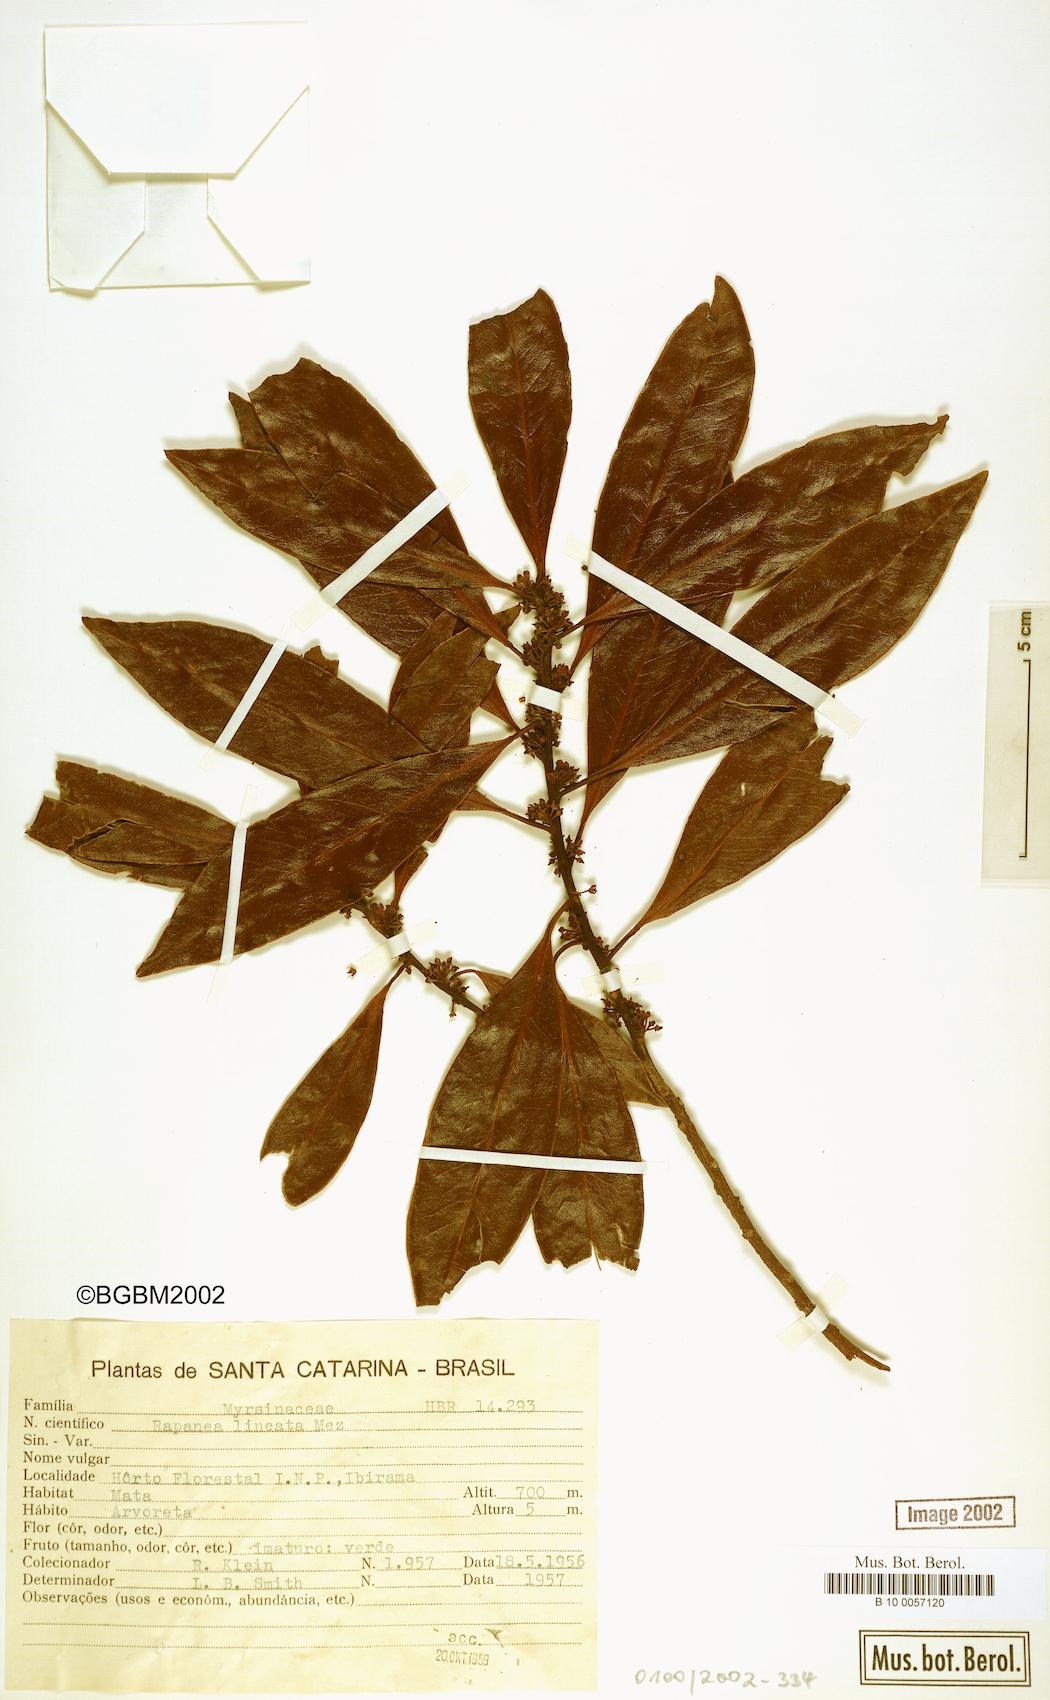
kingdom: Plantae
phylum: Tracheophyta
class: Magnoliopsida
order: Ericales
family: Primulaceae
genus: Myrsine
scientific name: Myrsine lineata
